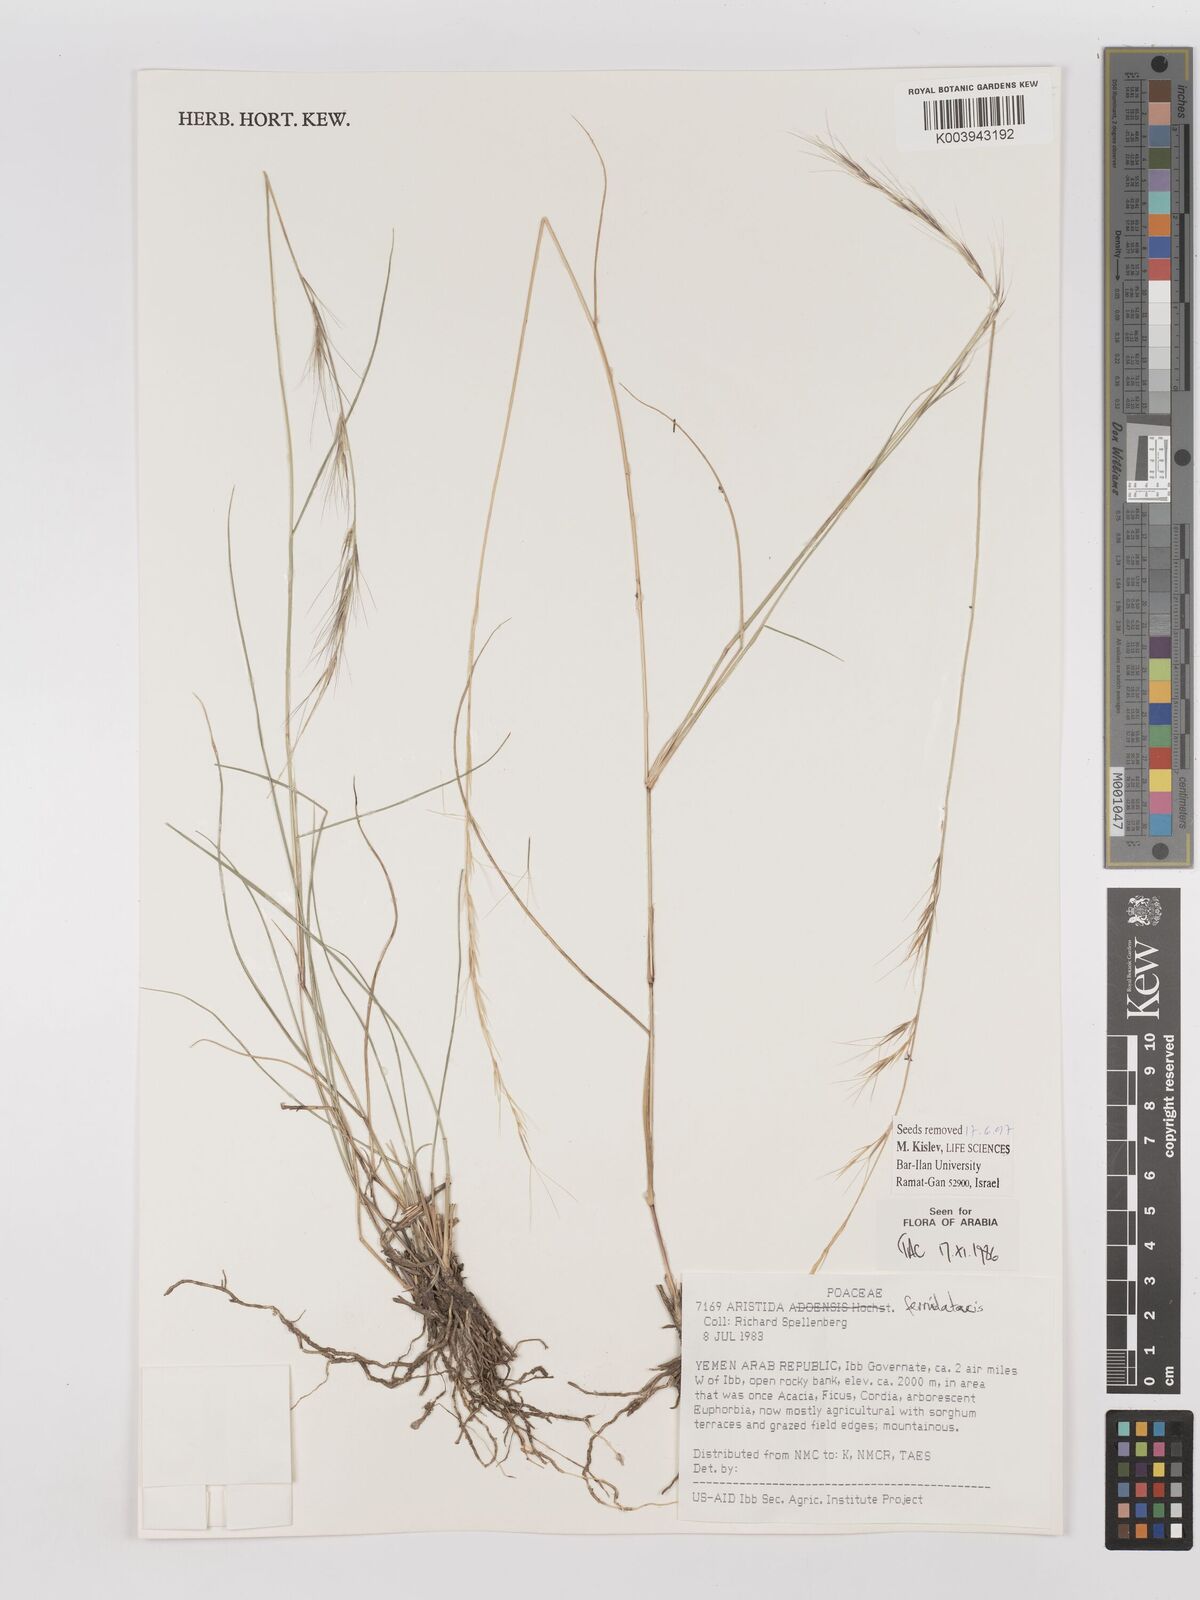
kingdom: Plantae
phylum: Tracheophyta
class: Liliopsida
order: Poales
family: Poaceae
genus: Aristida
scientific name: Aristida ferrilateris
